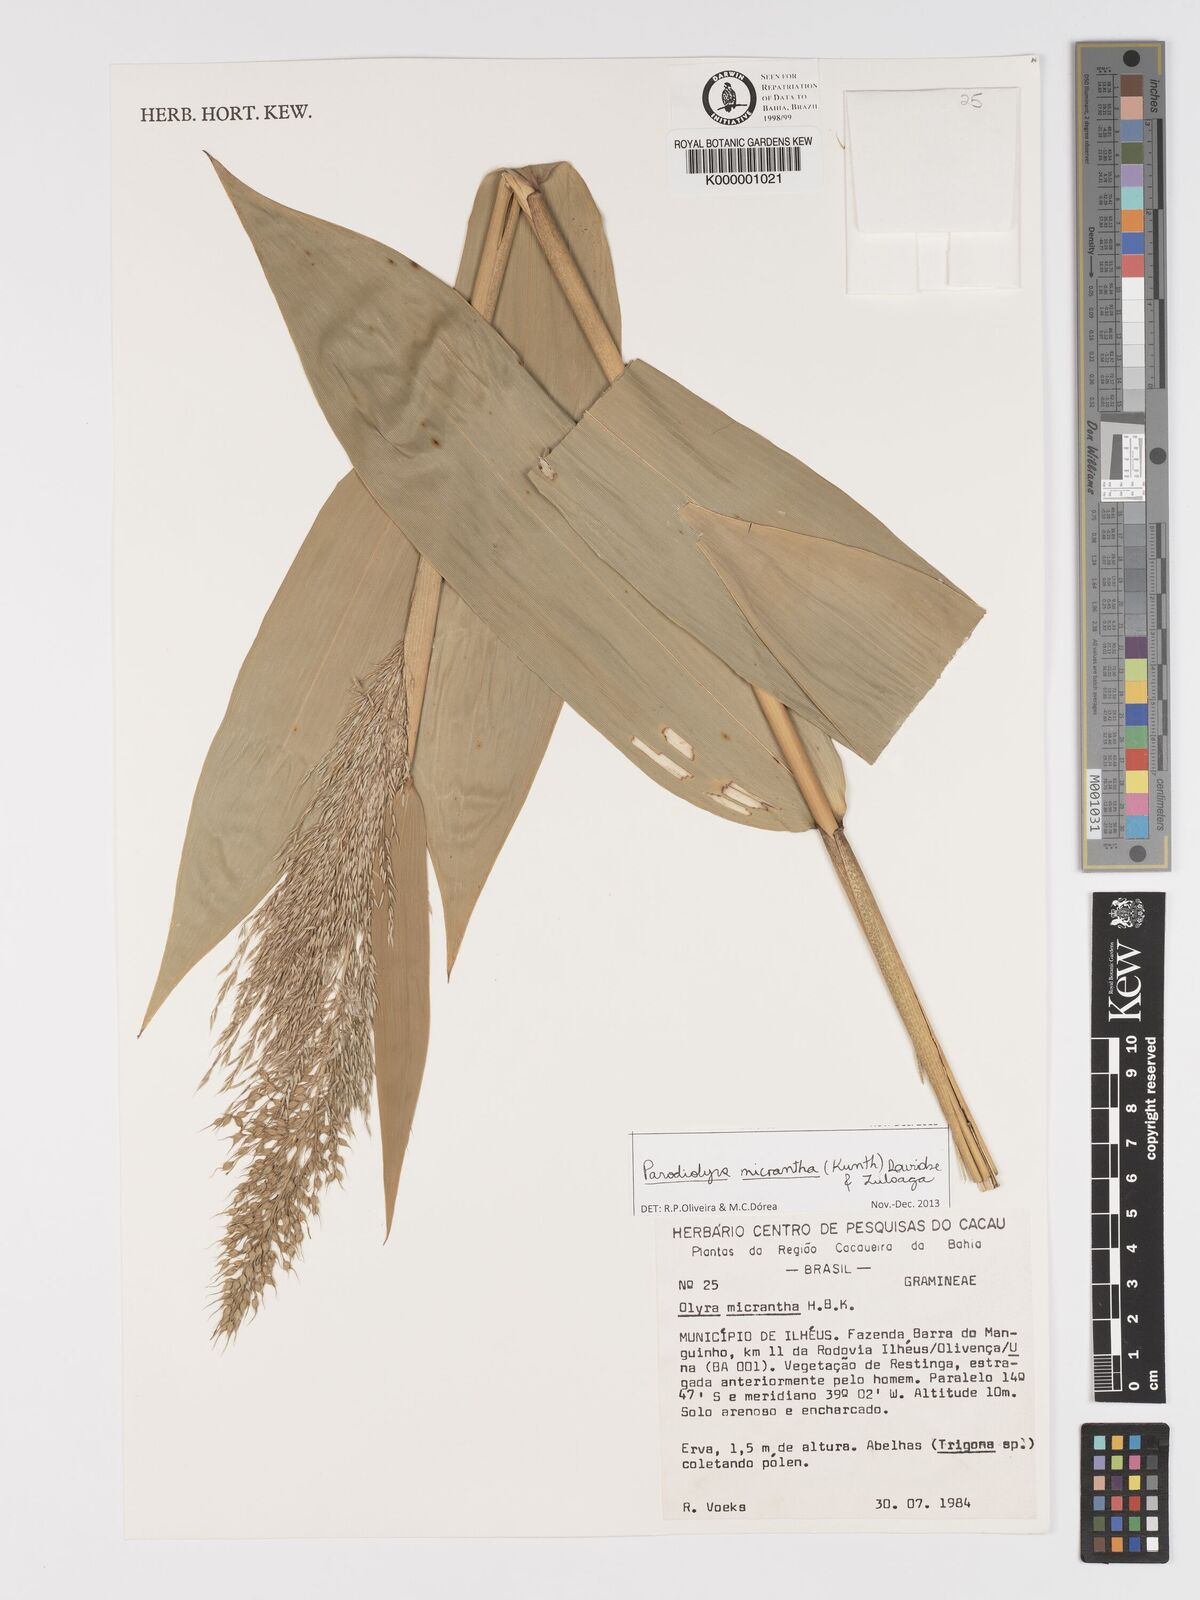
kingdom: Plantae
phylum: Tracheophyta
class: Liliopsida
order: Poales
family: Poaceae
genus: Taquara
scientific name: Taquara micrantha
